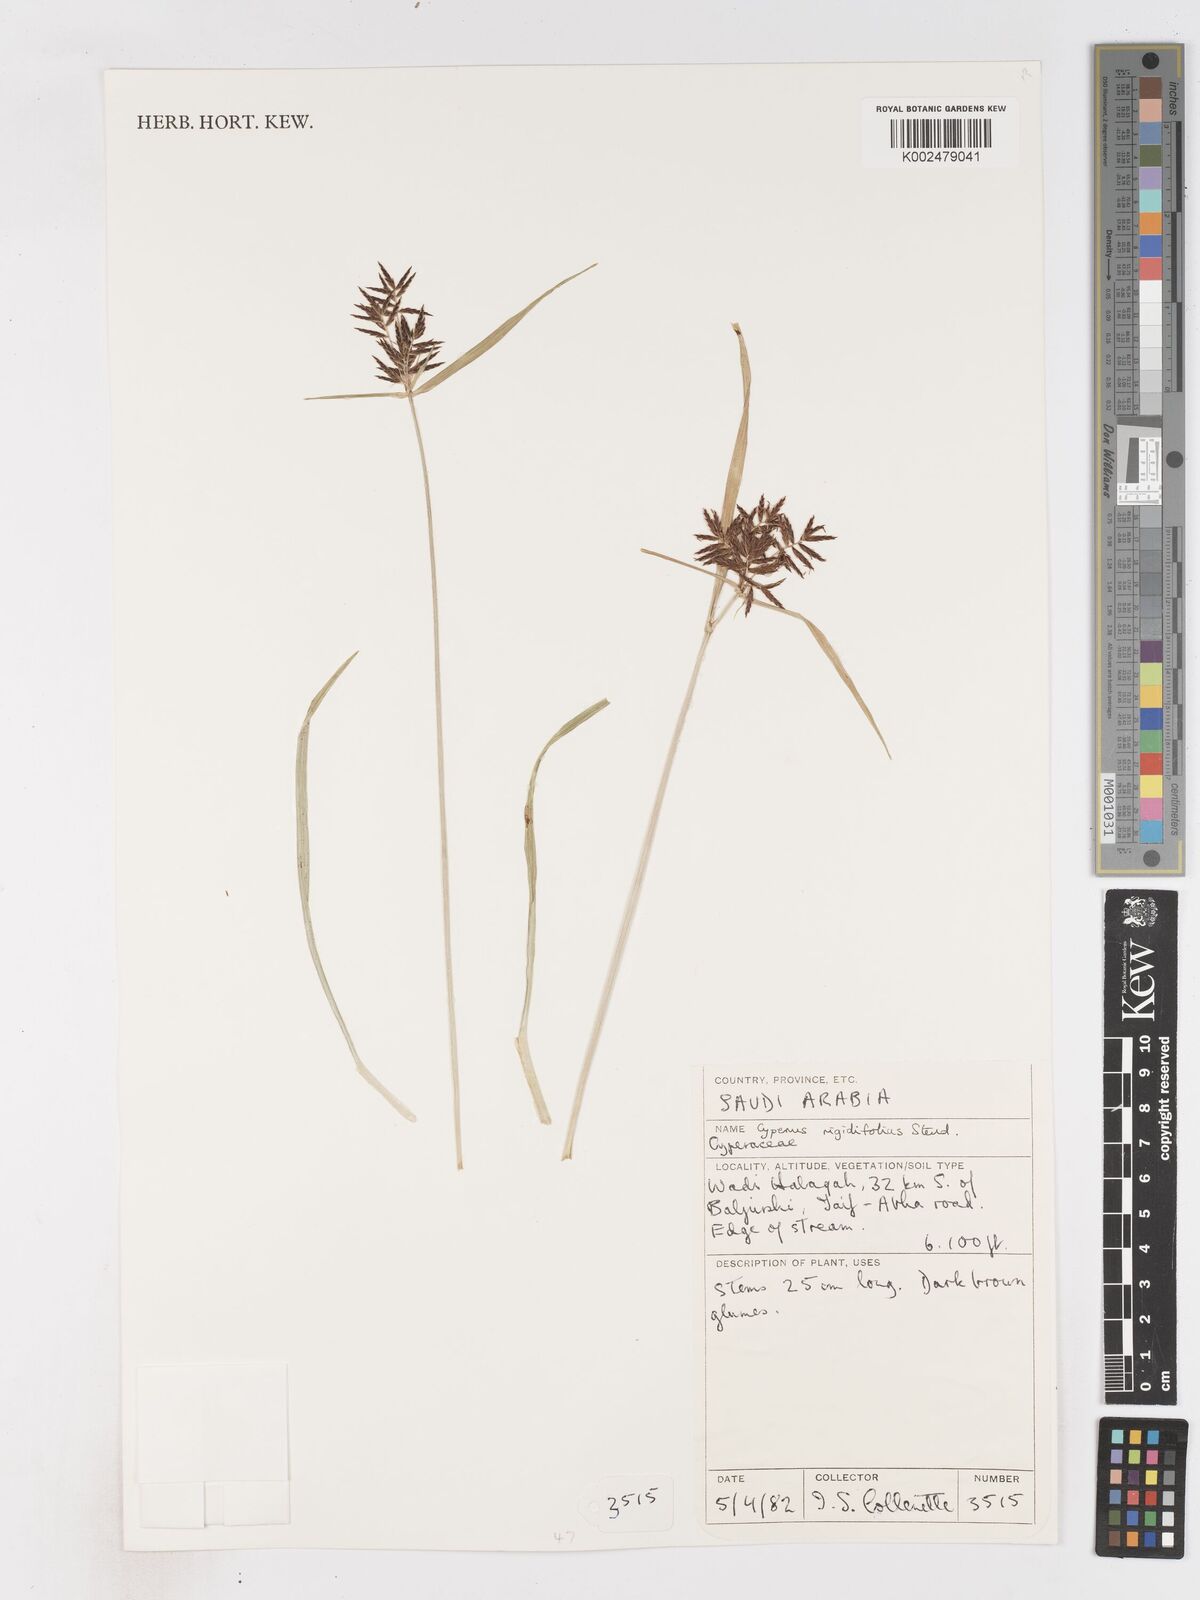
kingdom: Plantae
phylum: Tracheophyta
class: Liliopsida
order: Poales
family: Cyperaceae
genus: Cyperus
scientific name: Cyperus rigidifolius
